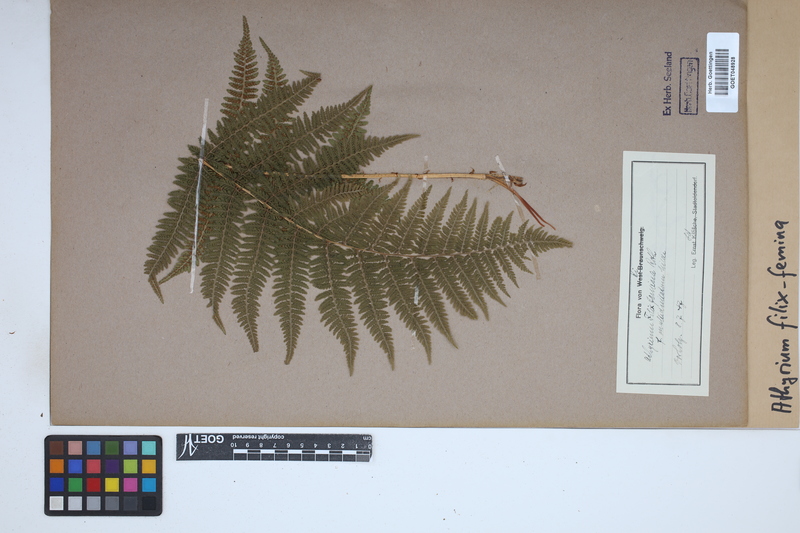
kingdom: Plantae
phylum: Tracheophyta
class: Polypodiopsida
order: Polypodiales
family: Athyriaceae
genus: Athyrium
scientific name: Athyrium filix-femina
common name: Lady fern
